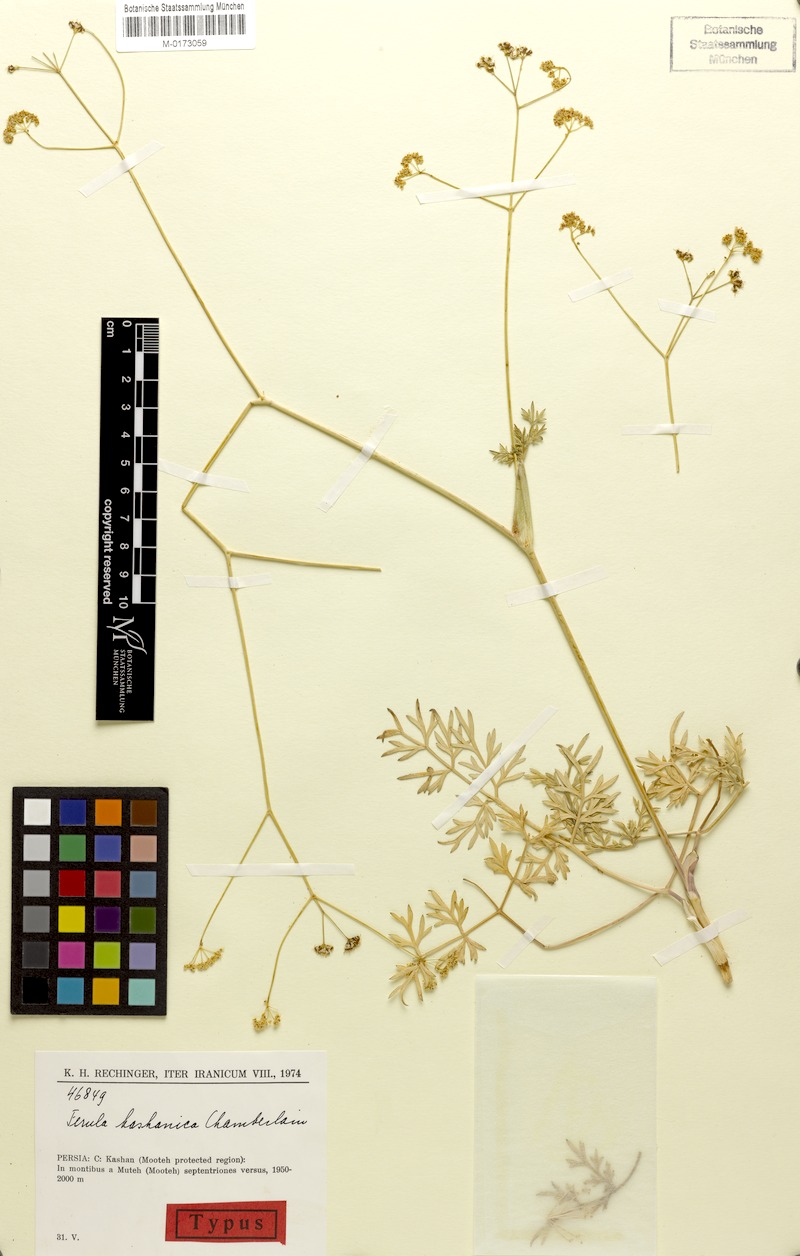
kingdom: Plantae
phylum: Tracheophyta
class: Magnoliopsida
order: Apiales
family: Apiaceae
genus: Ferula
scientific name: Ferula kashanica
